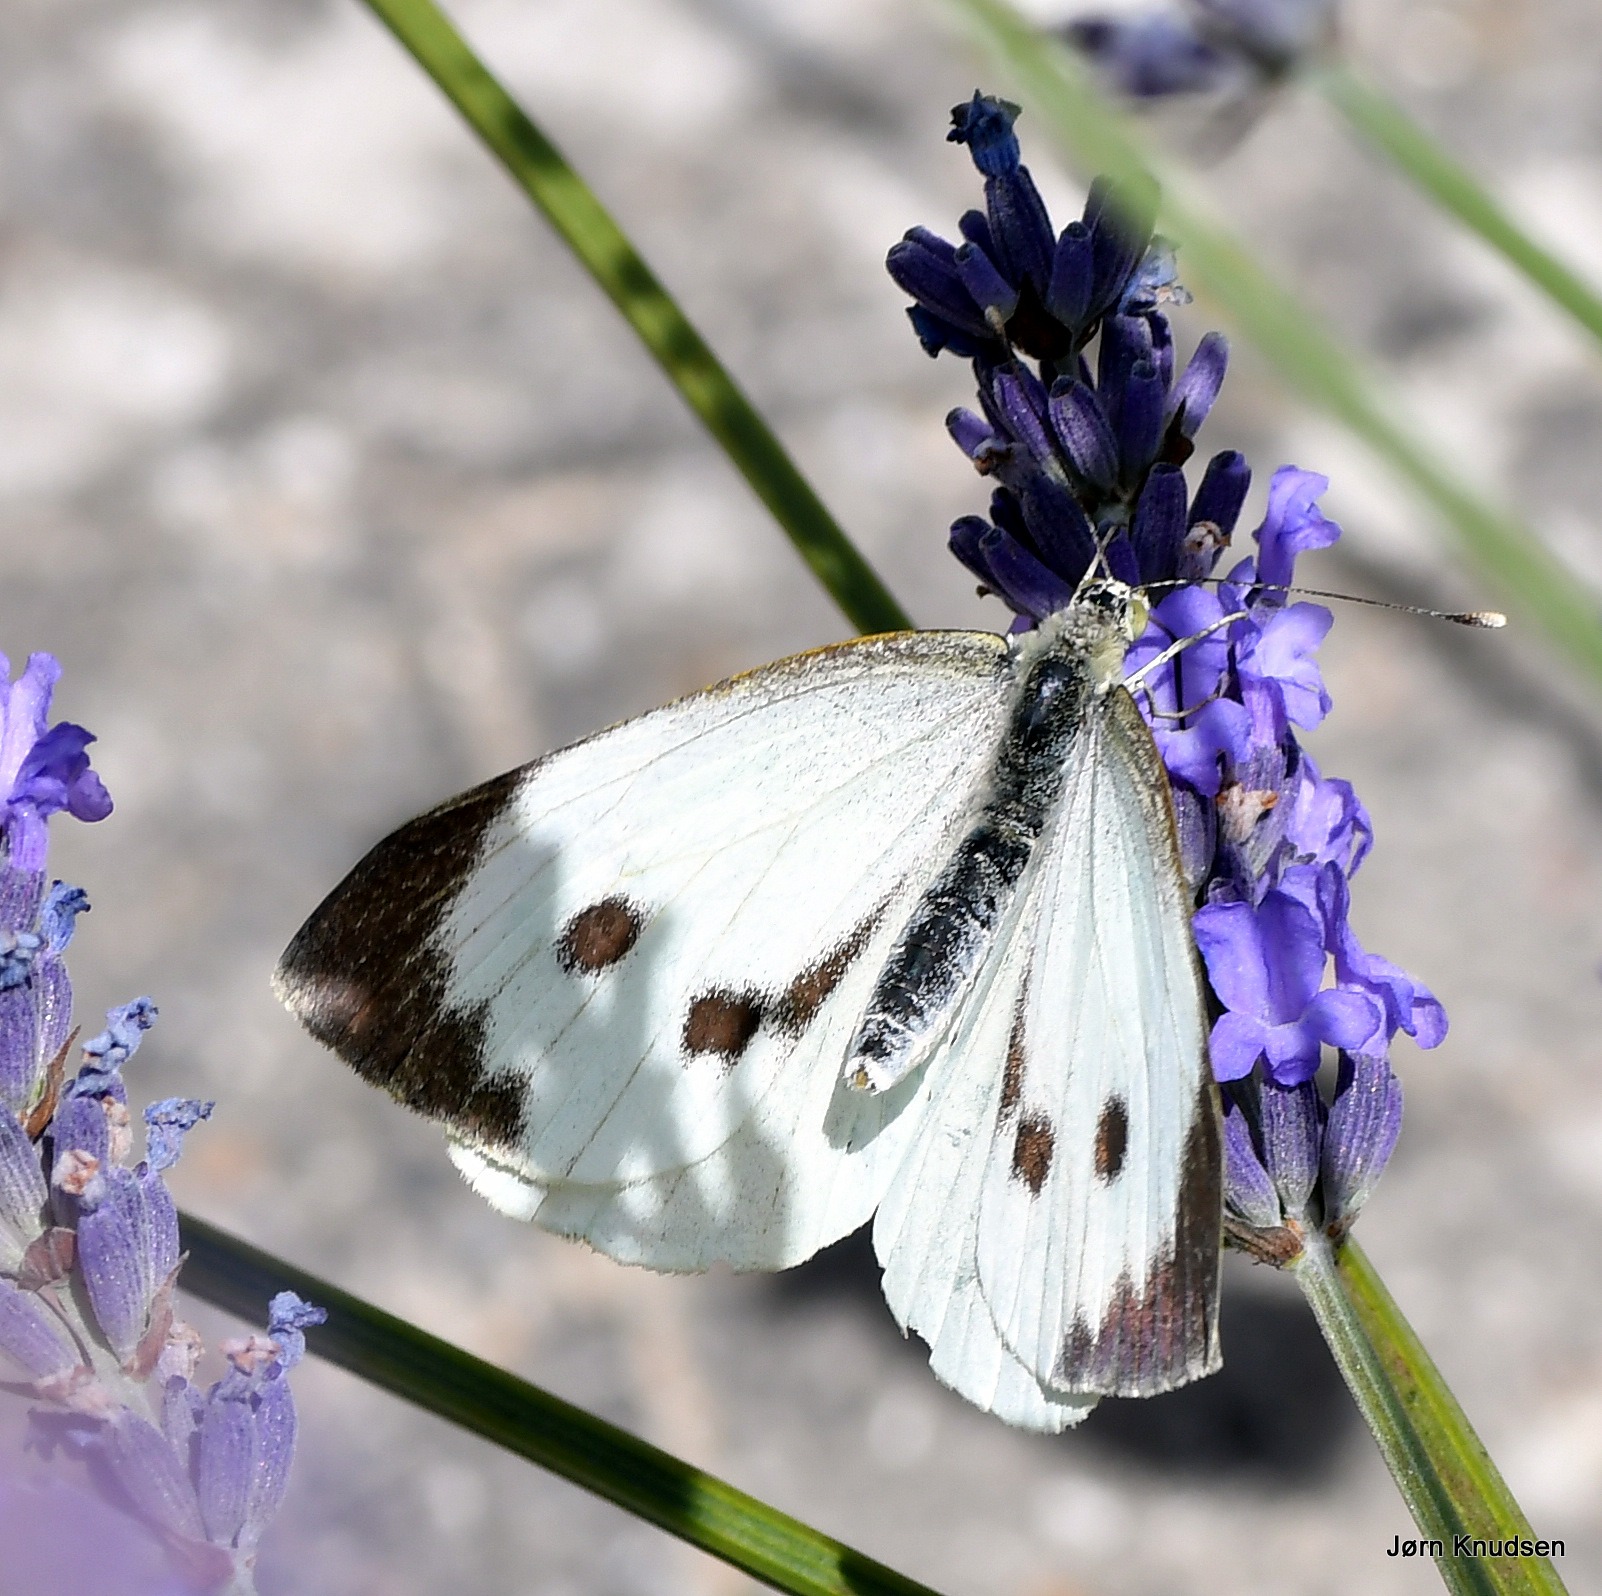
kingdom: Animalia
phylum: Arthropoda
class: Insecta
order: Lepidoptera
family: Pieridae
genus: Pieris
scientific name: Pieris brassicae
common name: Stor kålsommerfugl
